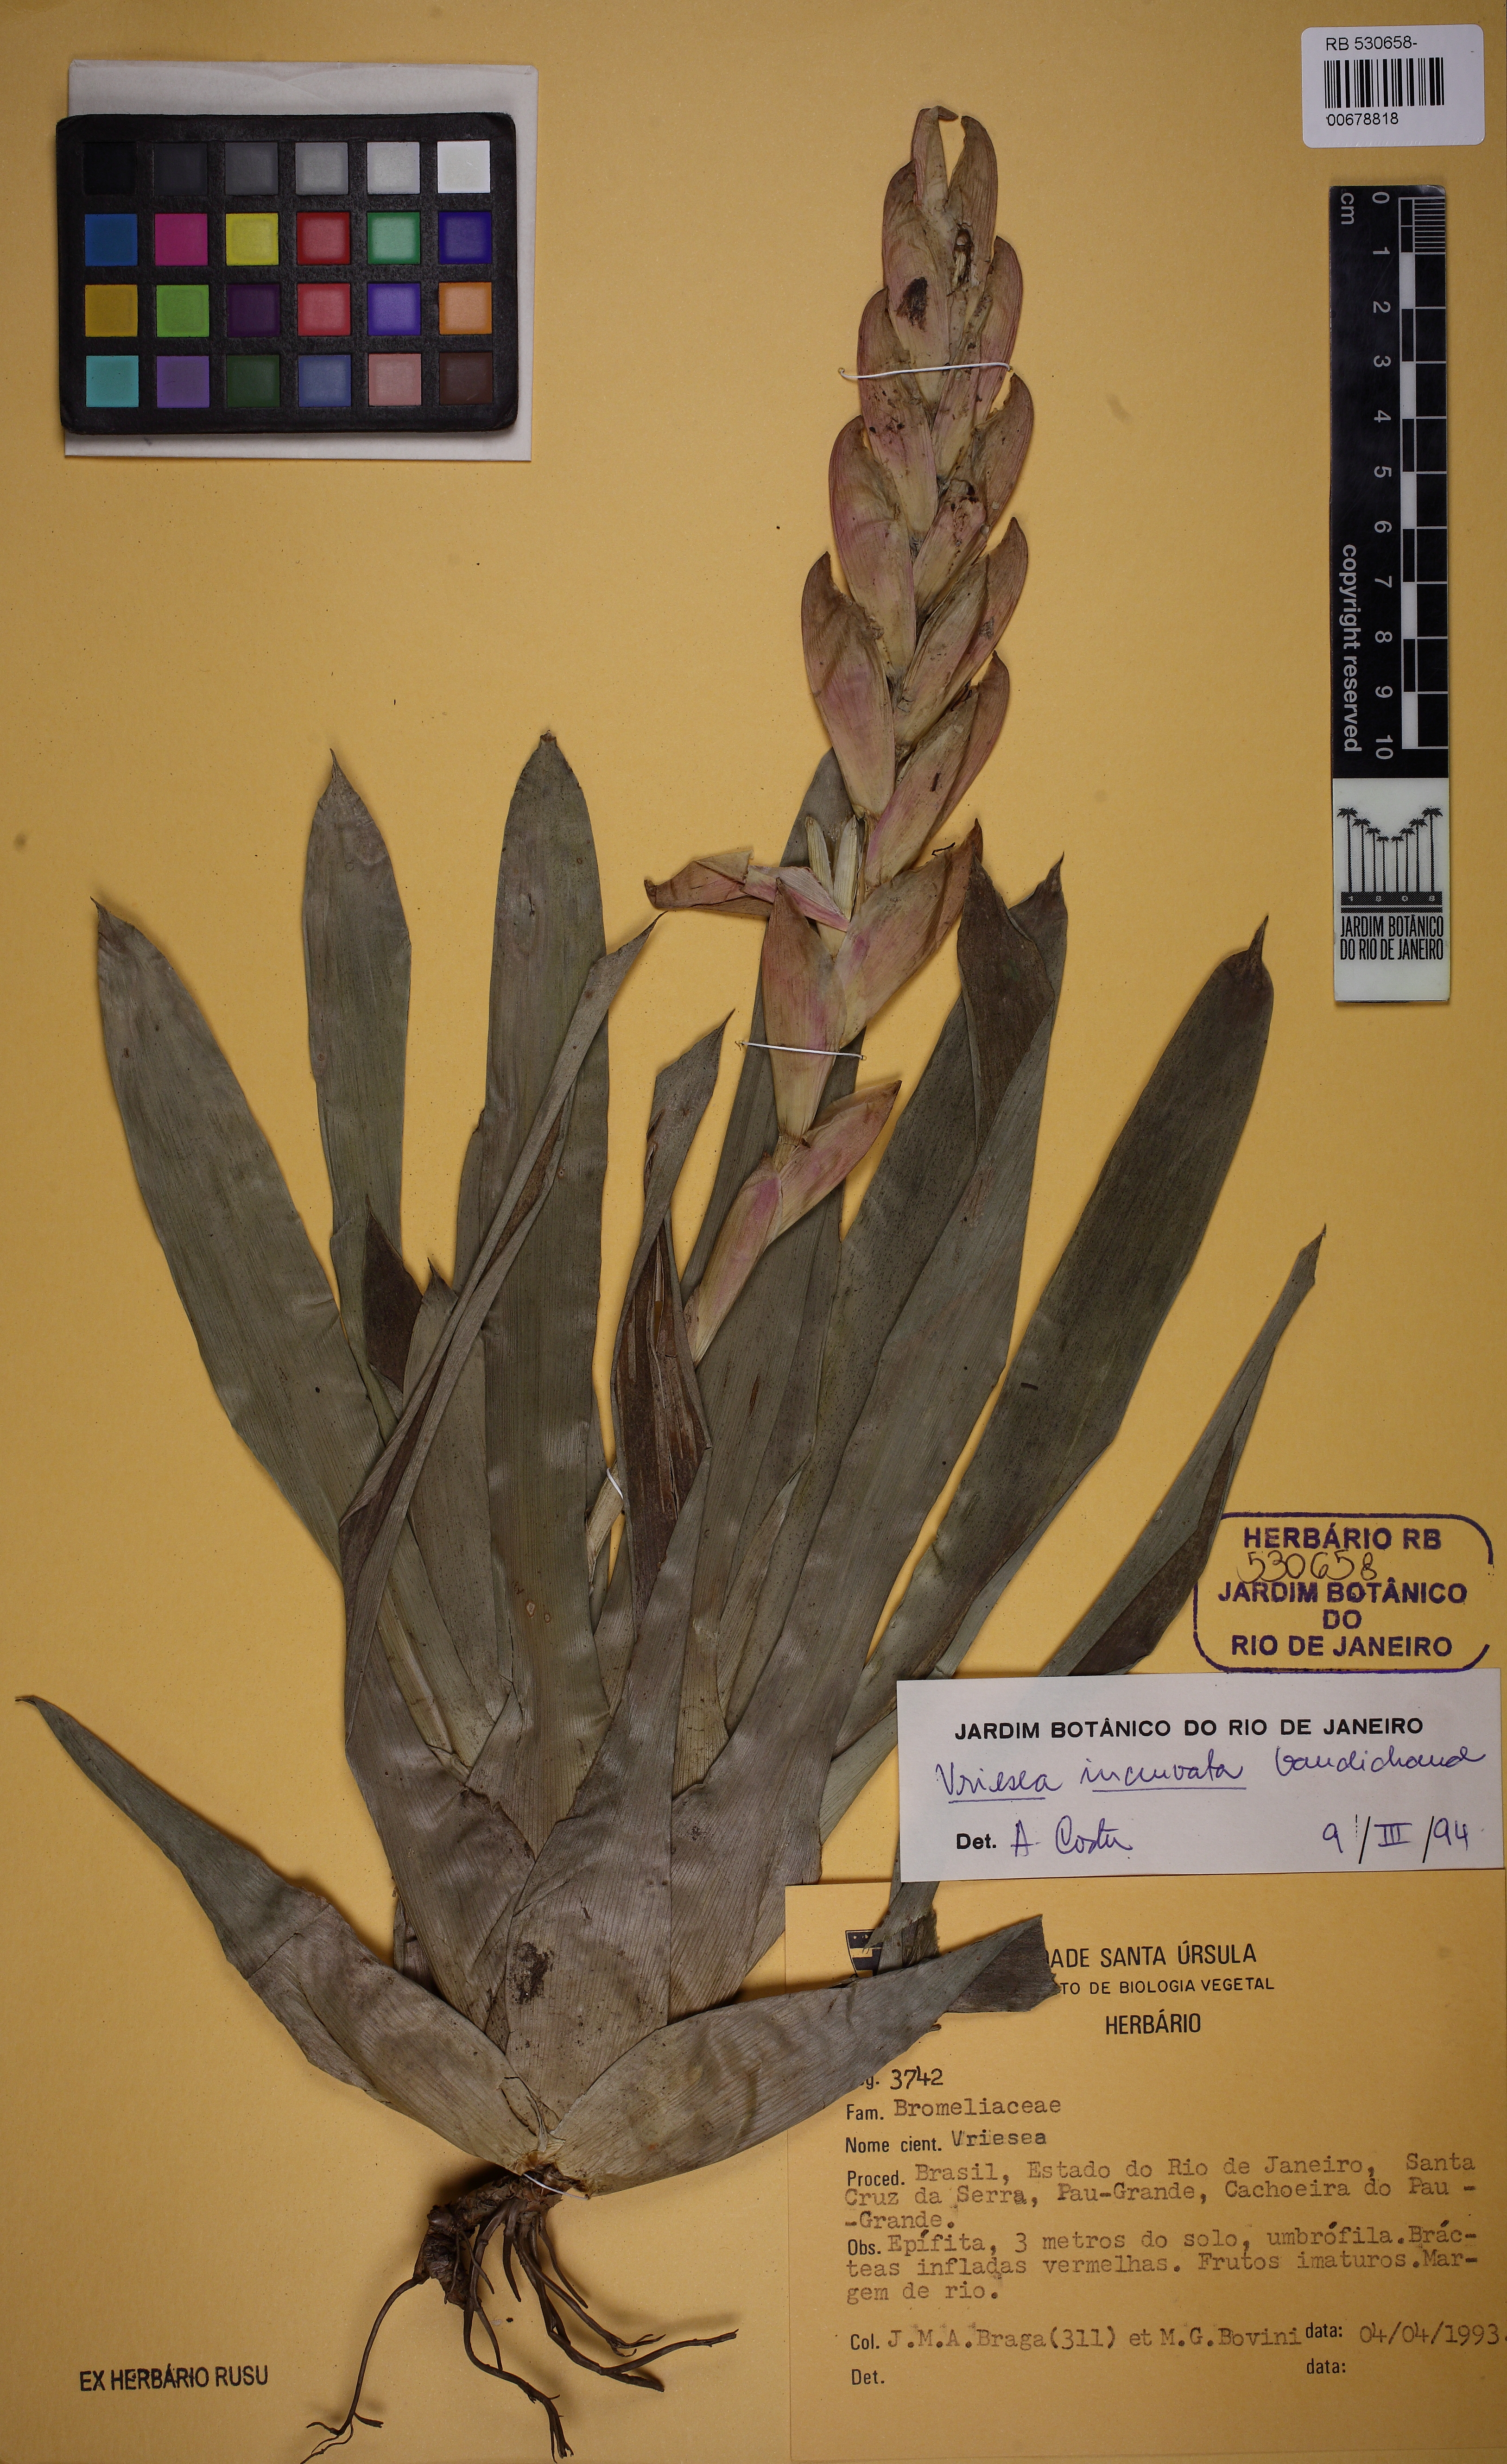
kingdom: Plantae
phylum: Tracheophyta
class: Liliopsida
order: Poales
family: Bromeliaceae
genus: Vriesea
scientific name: Vriesea incurvata
